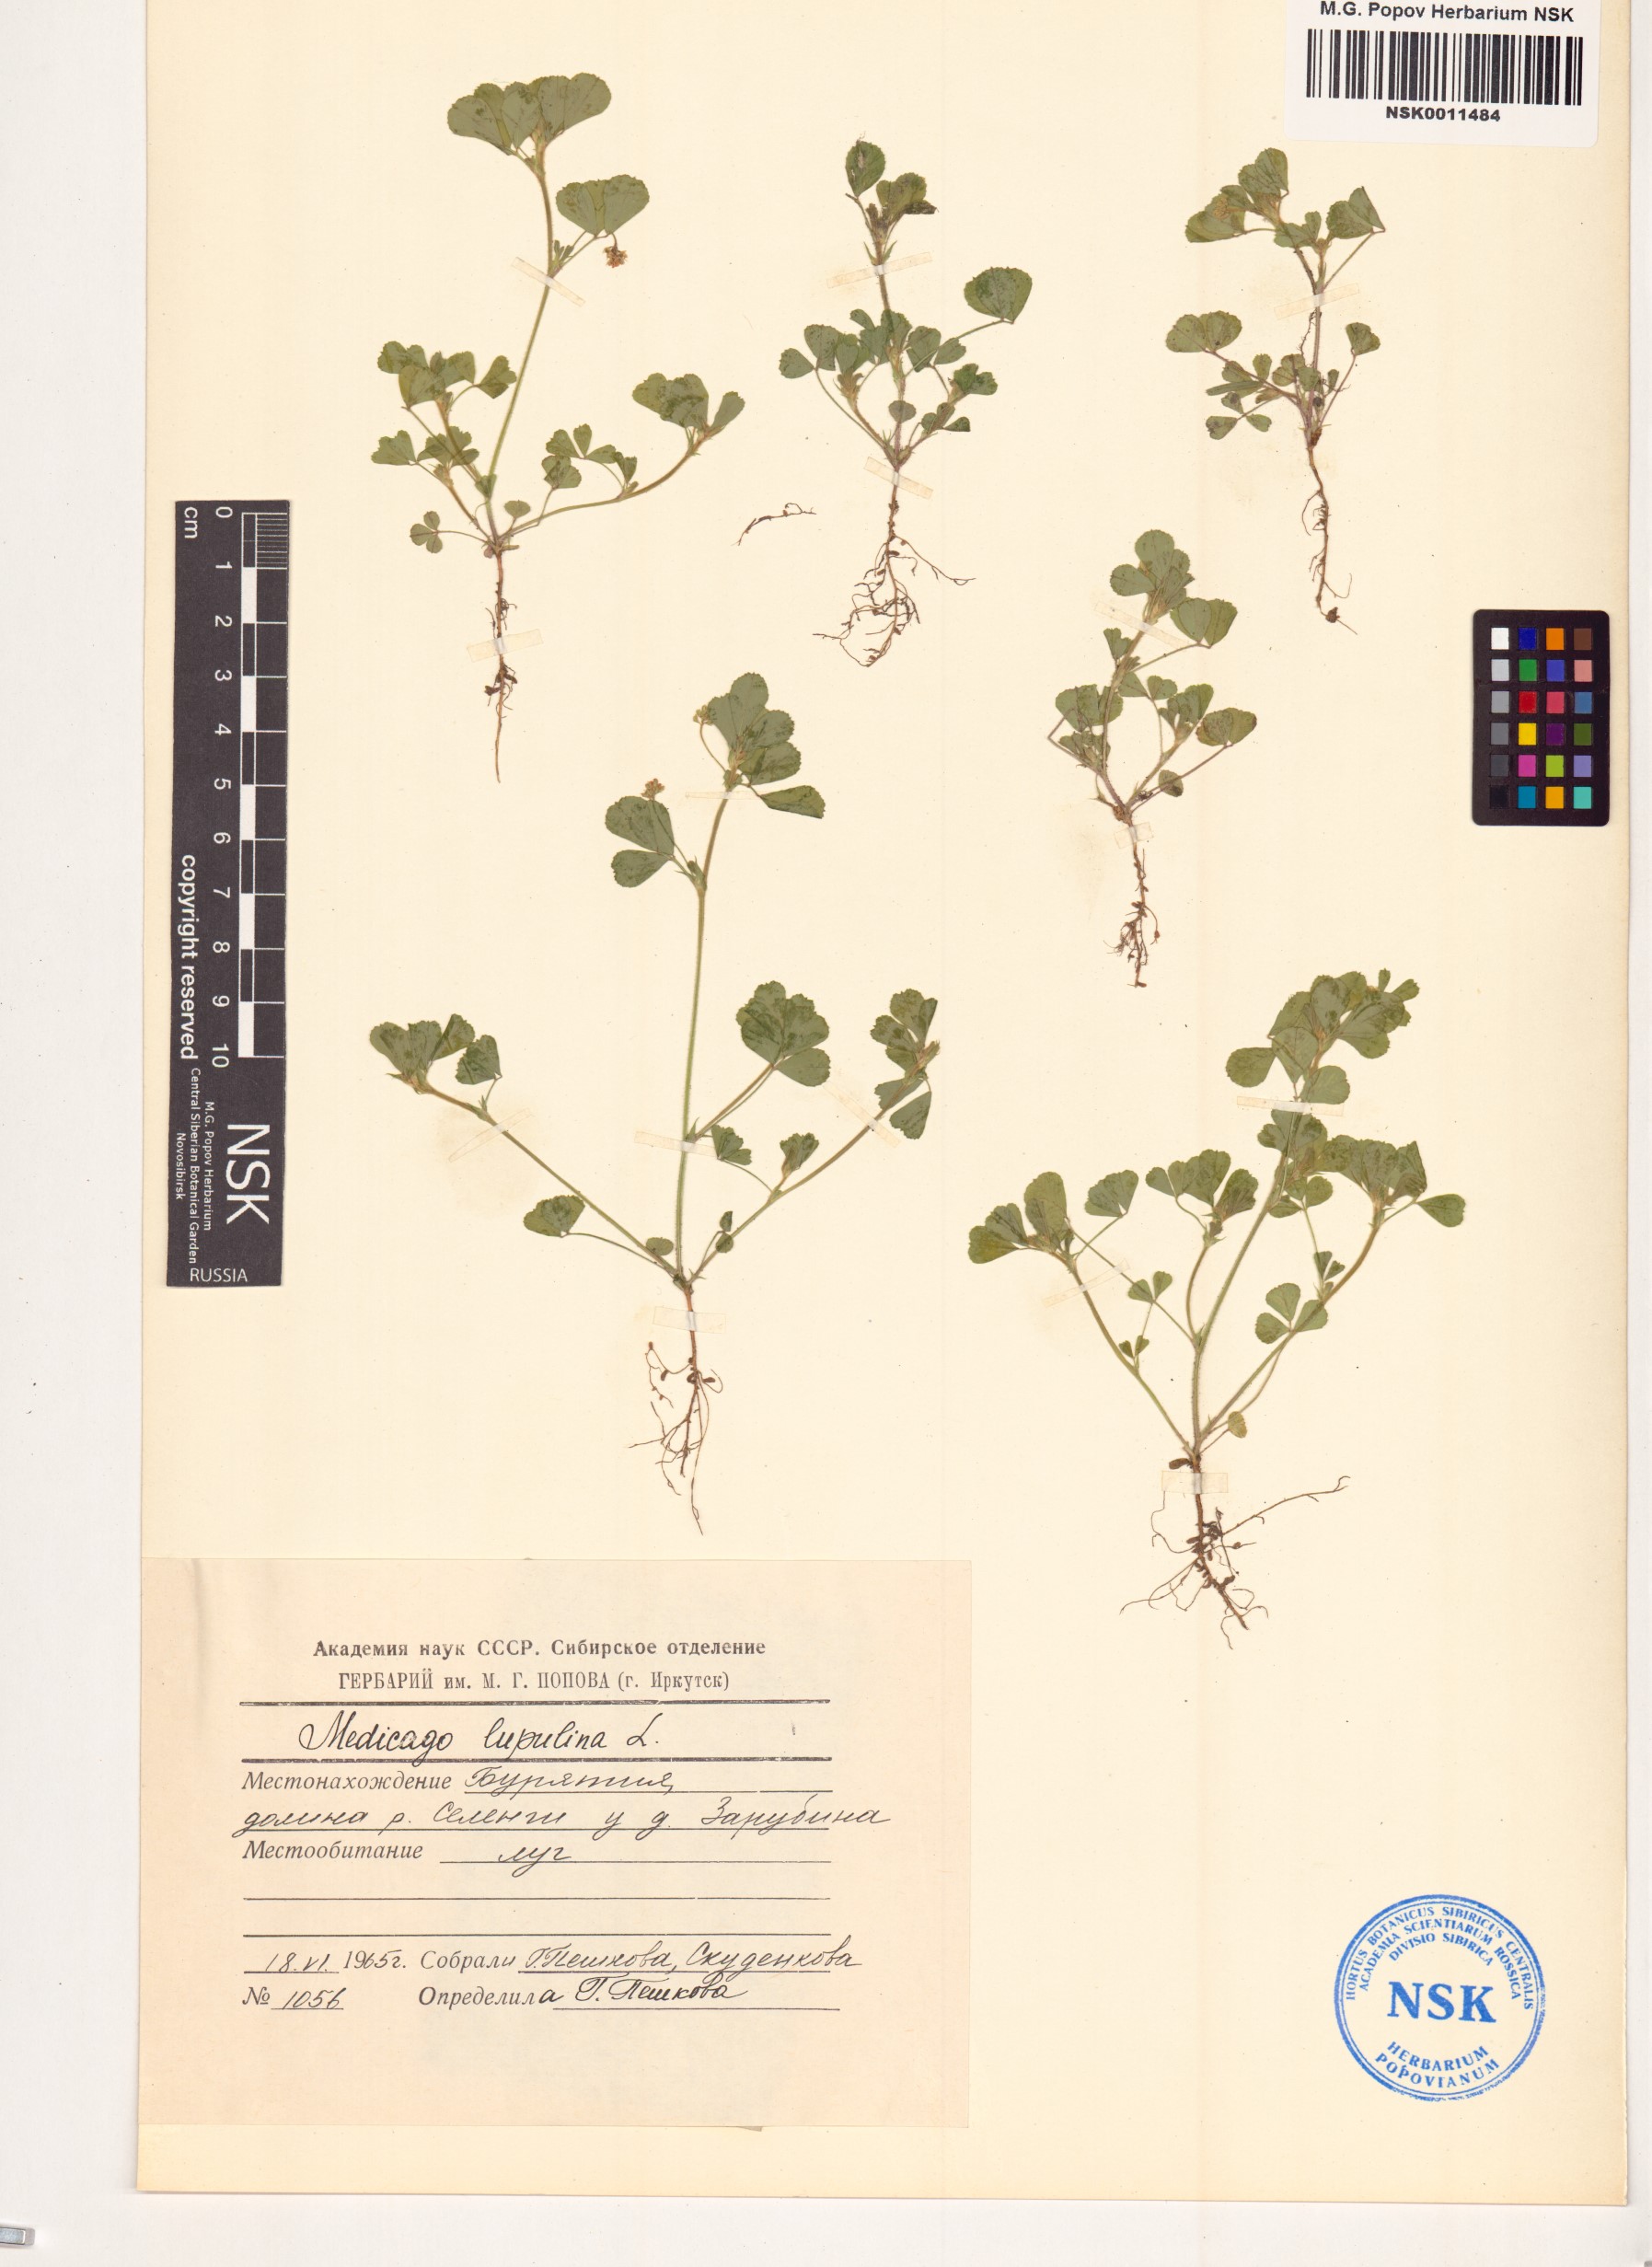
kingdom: Plantae
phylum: Tracheophyta
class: Magnoliopsida
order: Fabales
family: Fabaceae
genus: Medicago
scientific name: Medicago lupulina
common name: Black medick
